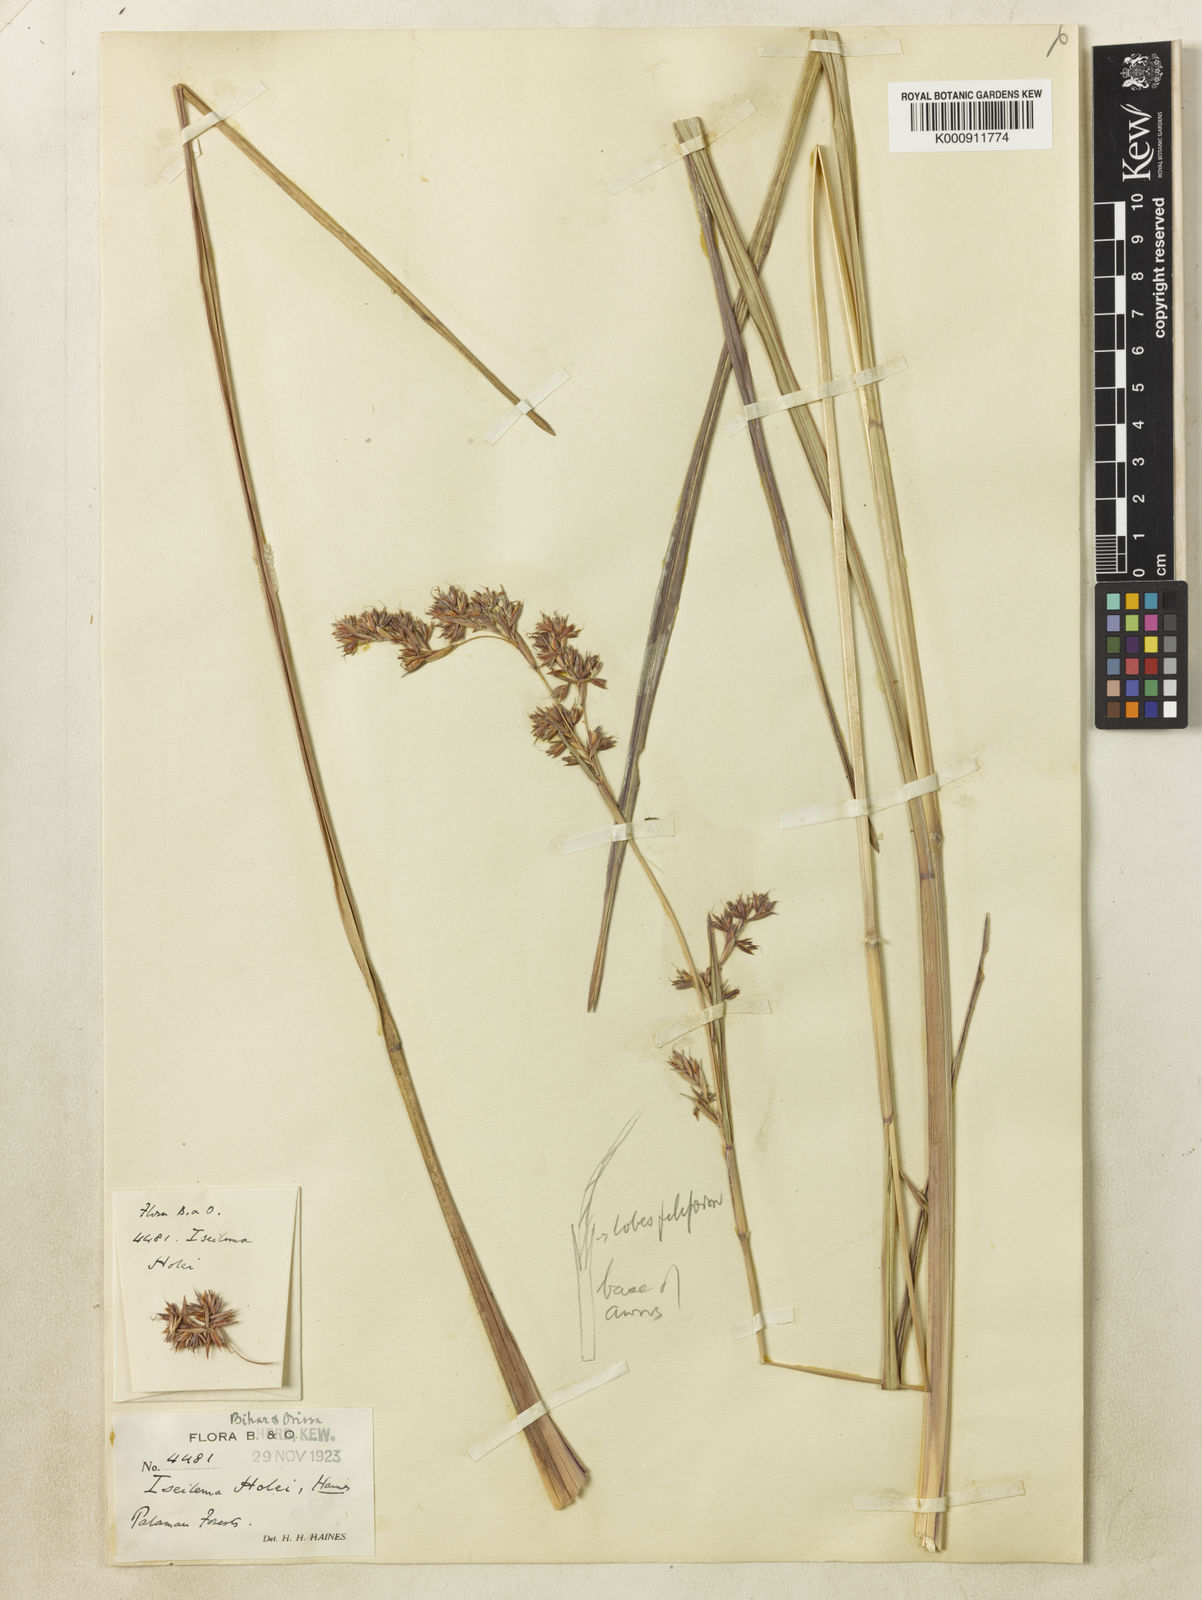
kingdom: Plantae
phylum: Tracheophyta
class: Liliopsida
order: Poales
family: Poaceae
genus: Iseilema
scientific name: Iseilema holei
